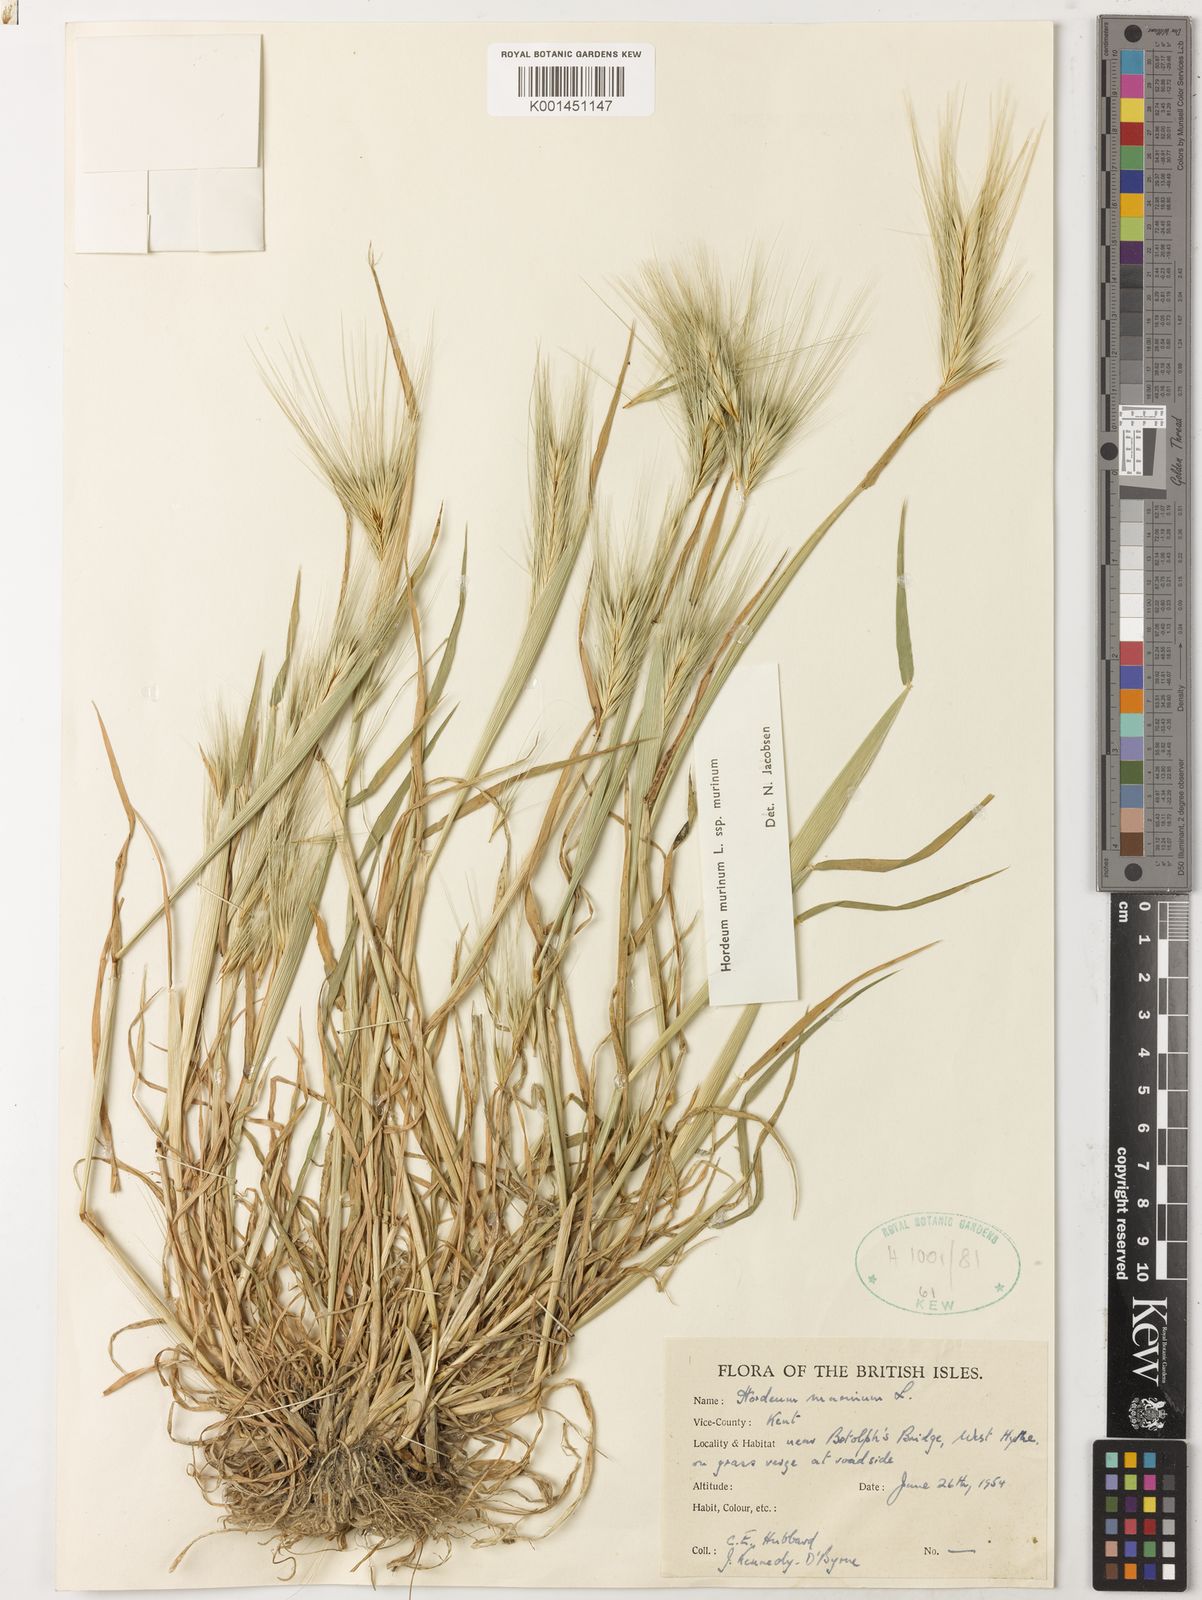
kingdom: Plantae
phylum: Tracheophyta
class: Liliopsida
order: Poales
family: Poaceae
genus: Hordeum
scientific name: Hordeum murinum
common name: Wall barley
